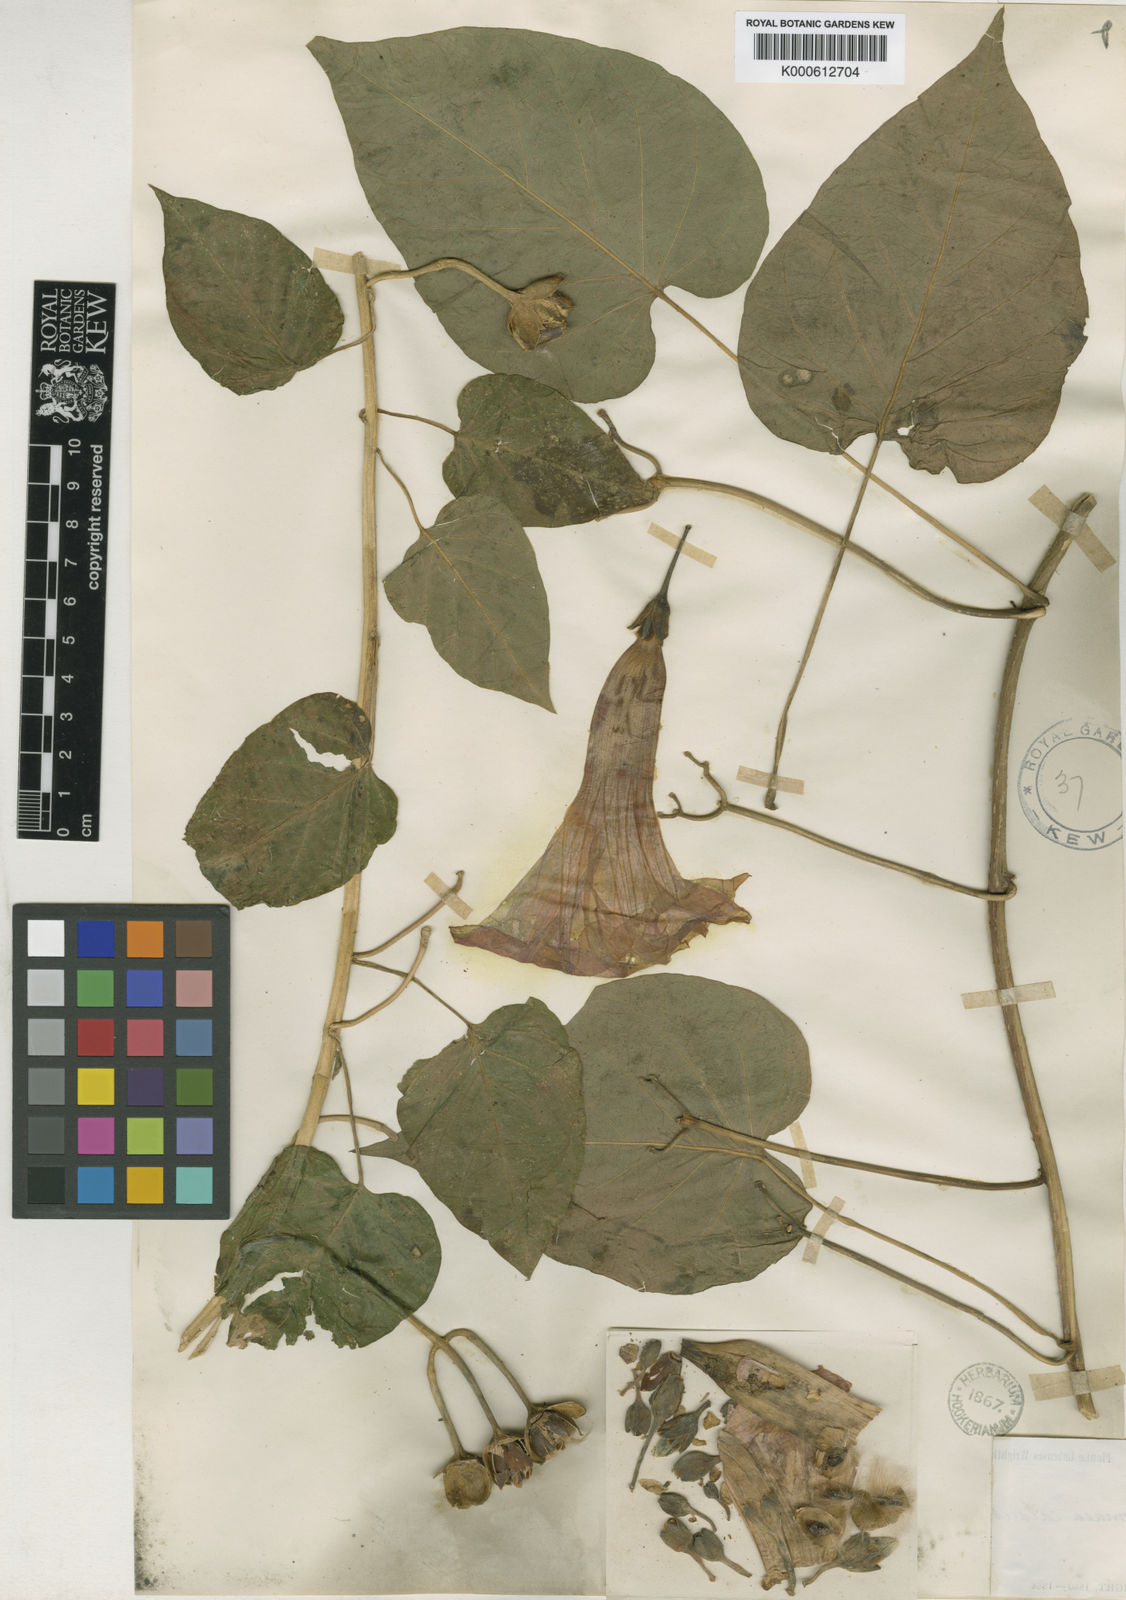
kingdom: Plantae
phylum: Tracheophyta
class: Magnoliopsida
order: Solanales
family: Convolvulaceae
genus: Ipomoea
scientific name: Ipomoea jalapa
